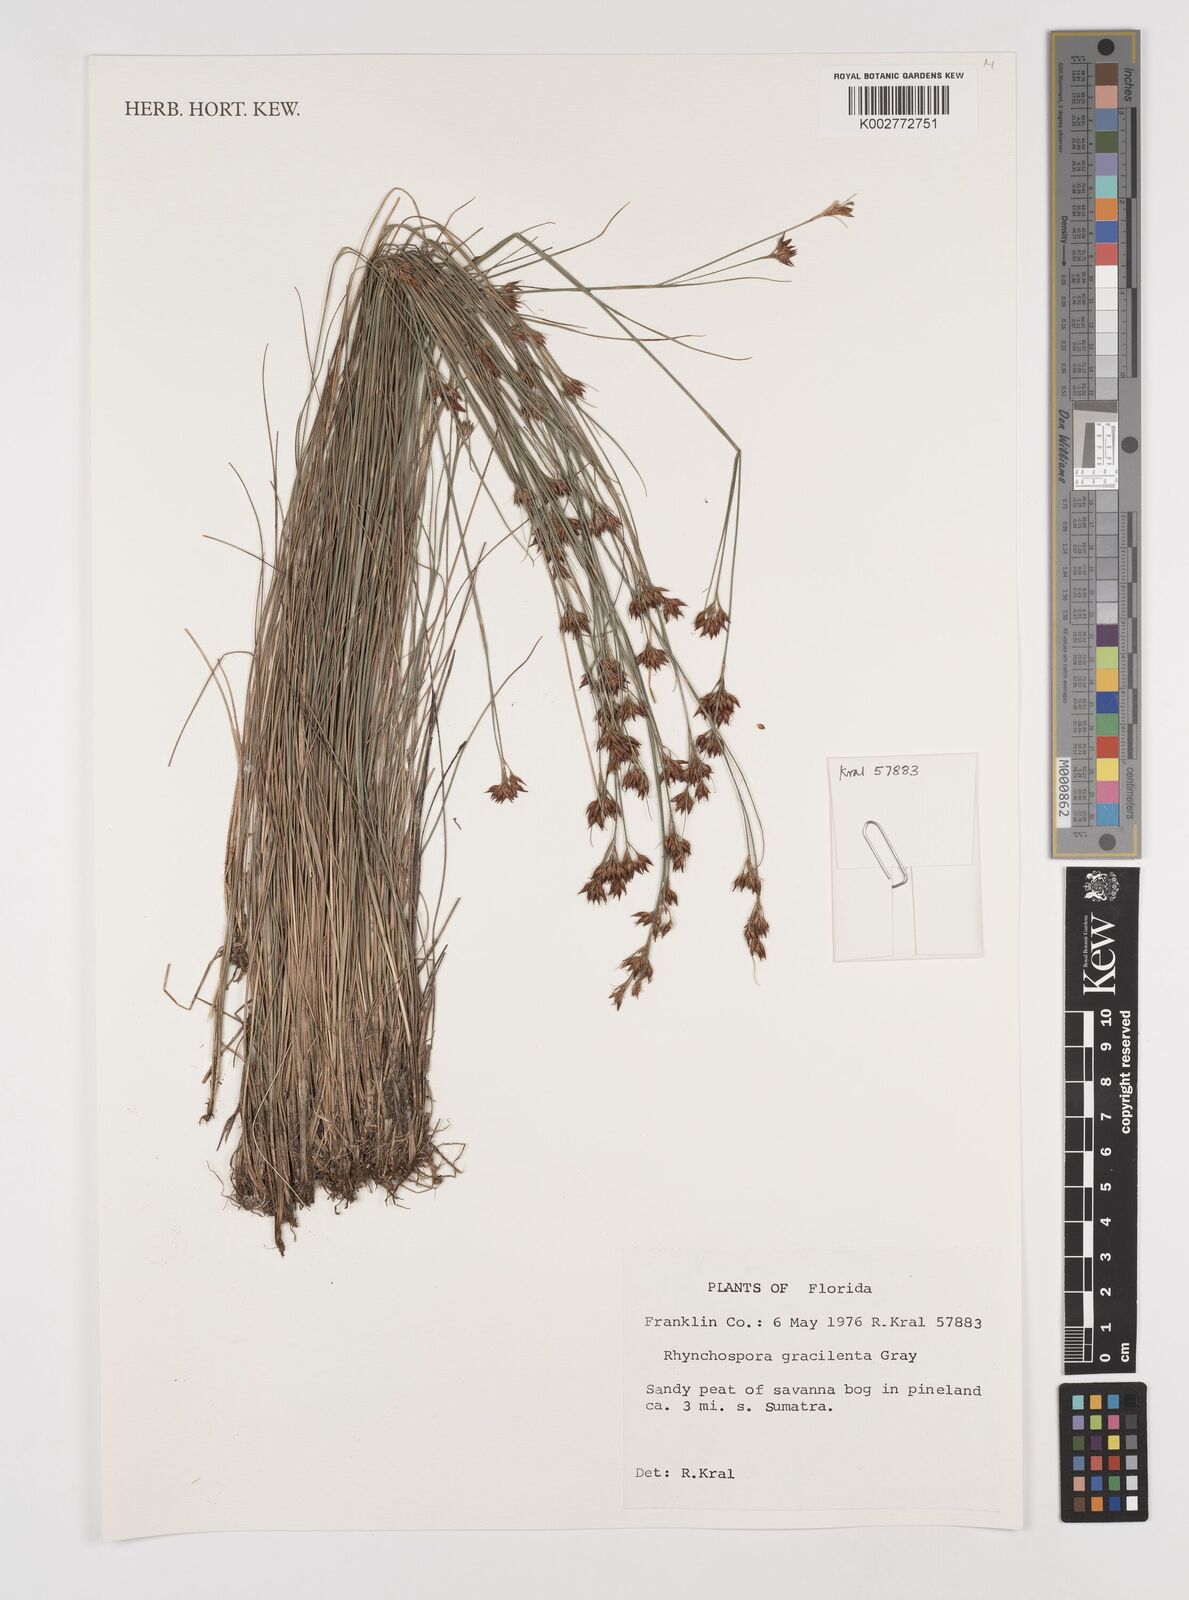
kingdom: Plantae
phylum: Tracheophyta
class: Liliopsida
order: Poales
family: Cyperaceae
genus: Rhynchospora
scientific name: Rhynchospora gracilenta
